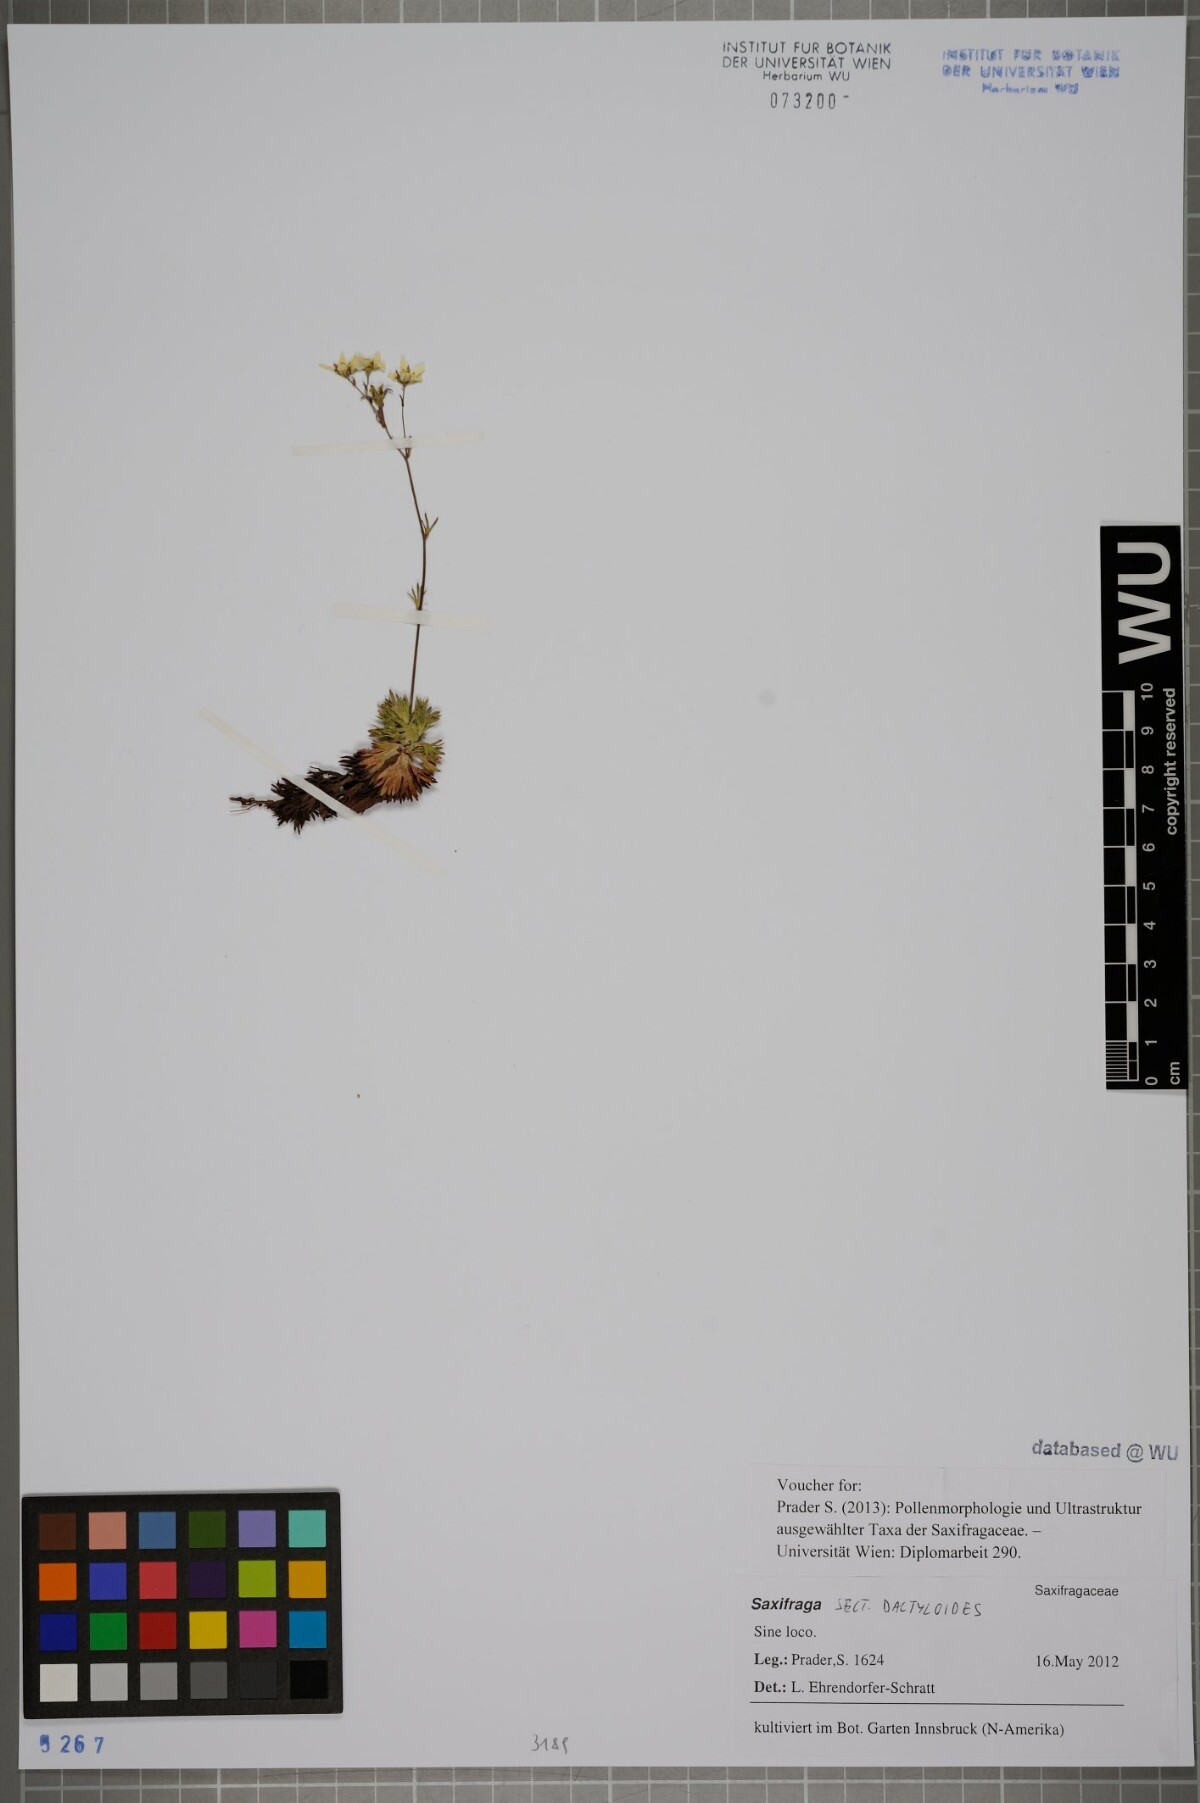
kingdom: Plantae
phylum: Tracheophyta
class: Magnoliopsida
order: Saxifragales
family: Saxifragaceae
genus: Saxifraga
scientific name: Saxifraga
